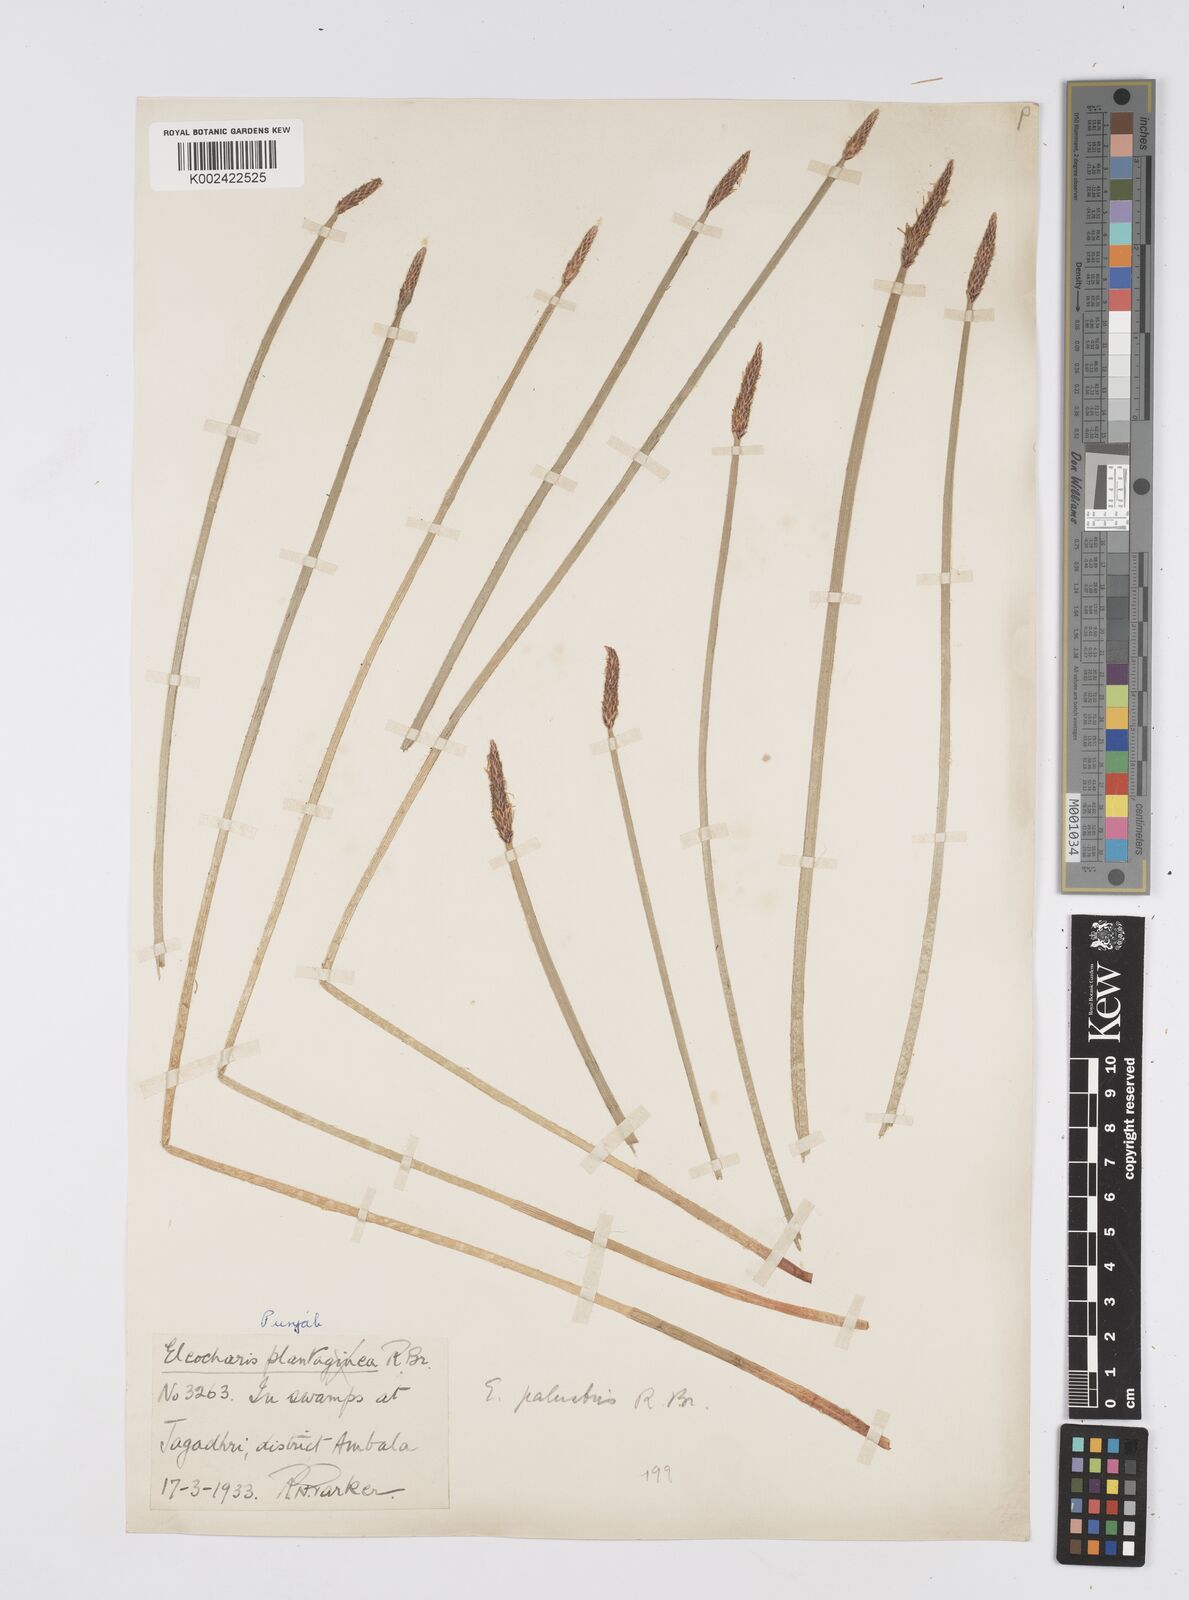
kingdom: Plantae
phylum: Tracheophyta
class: Liliopsida
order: Poales
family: Cyperaceae
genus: Eleocharis
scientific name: Eleocharis palustris
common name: Common spike-rush
